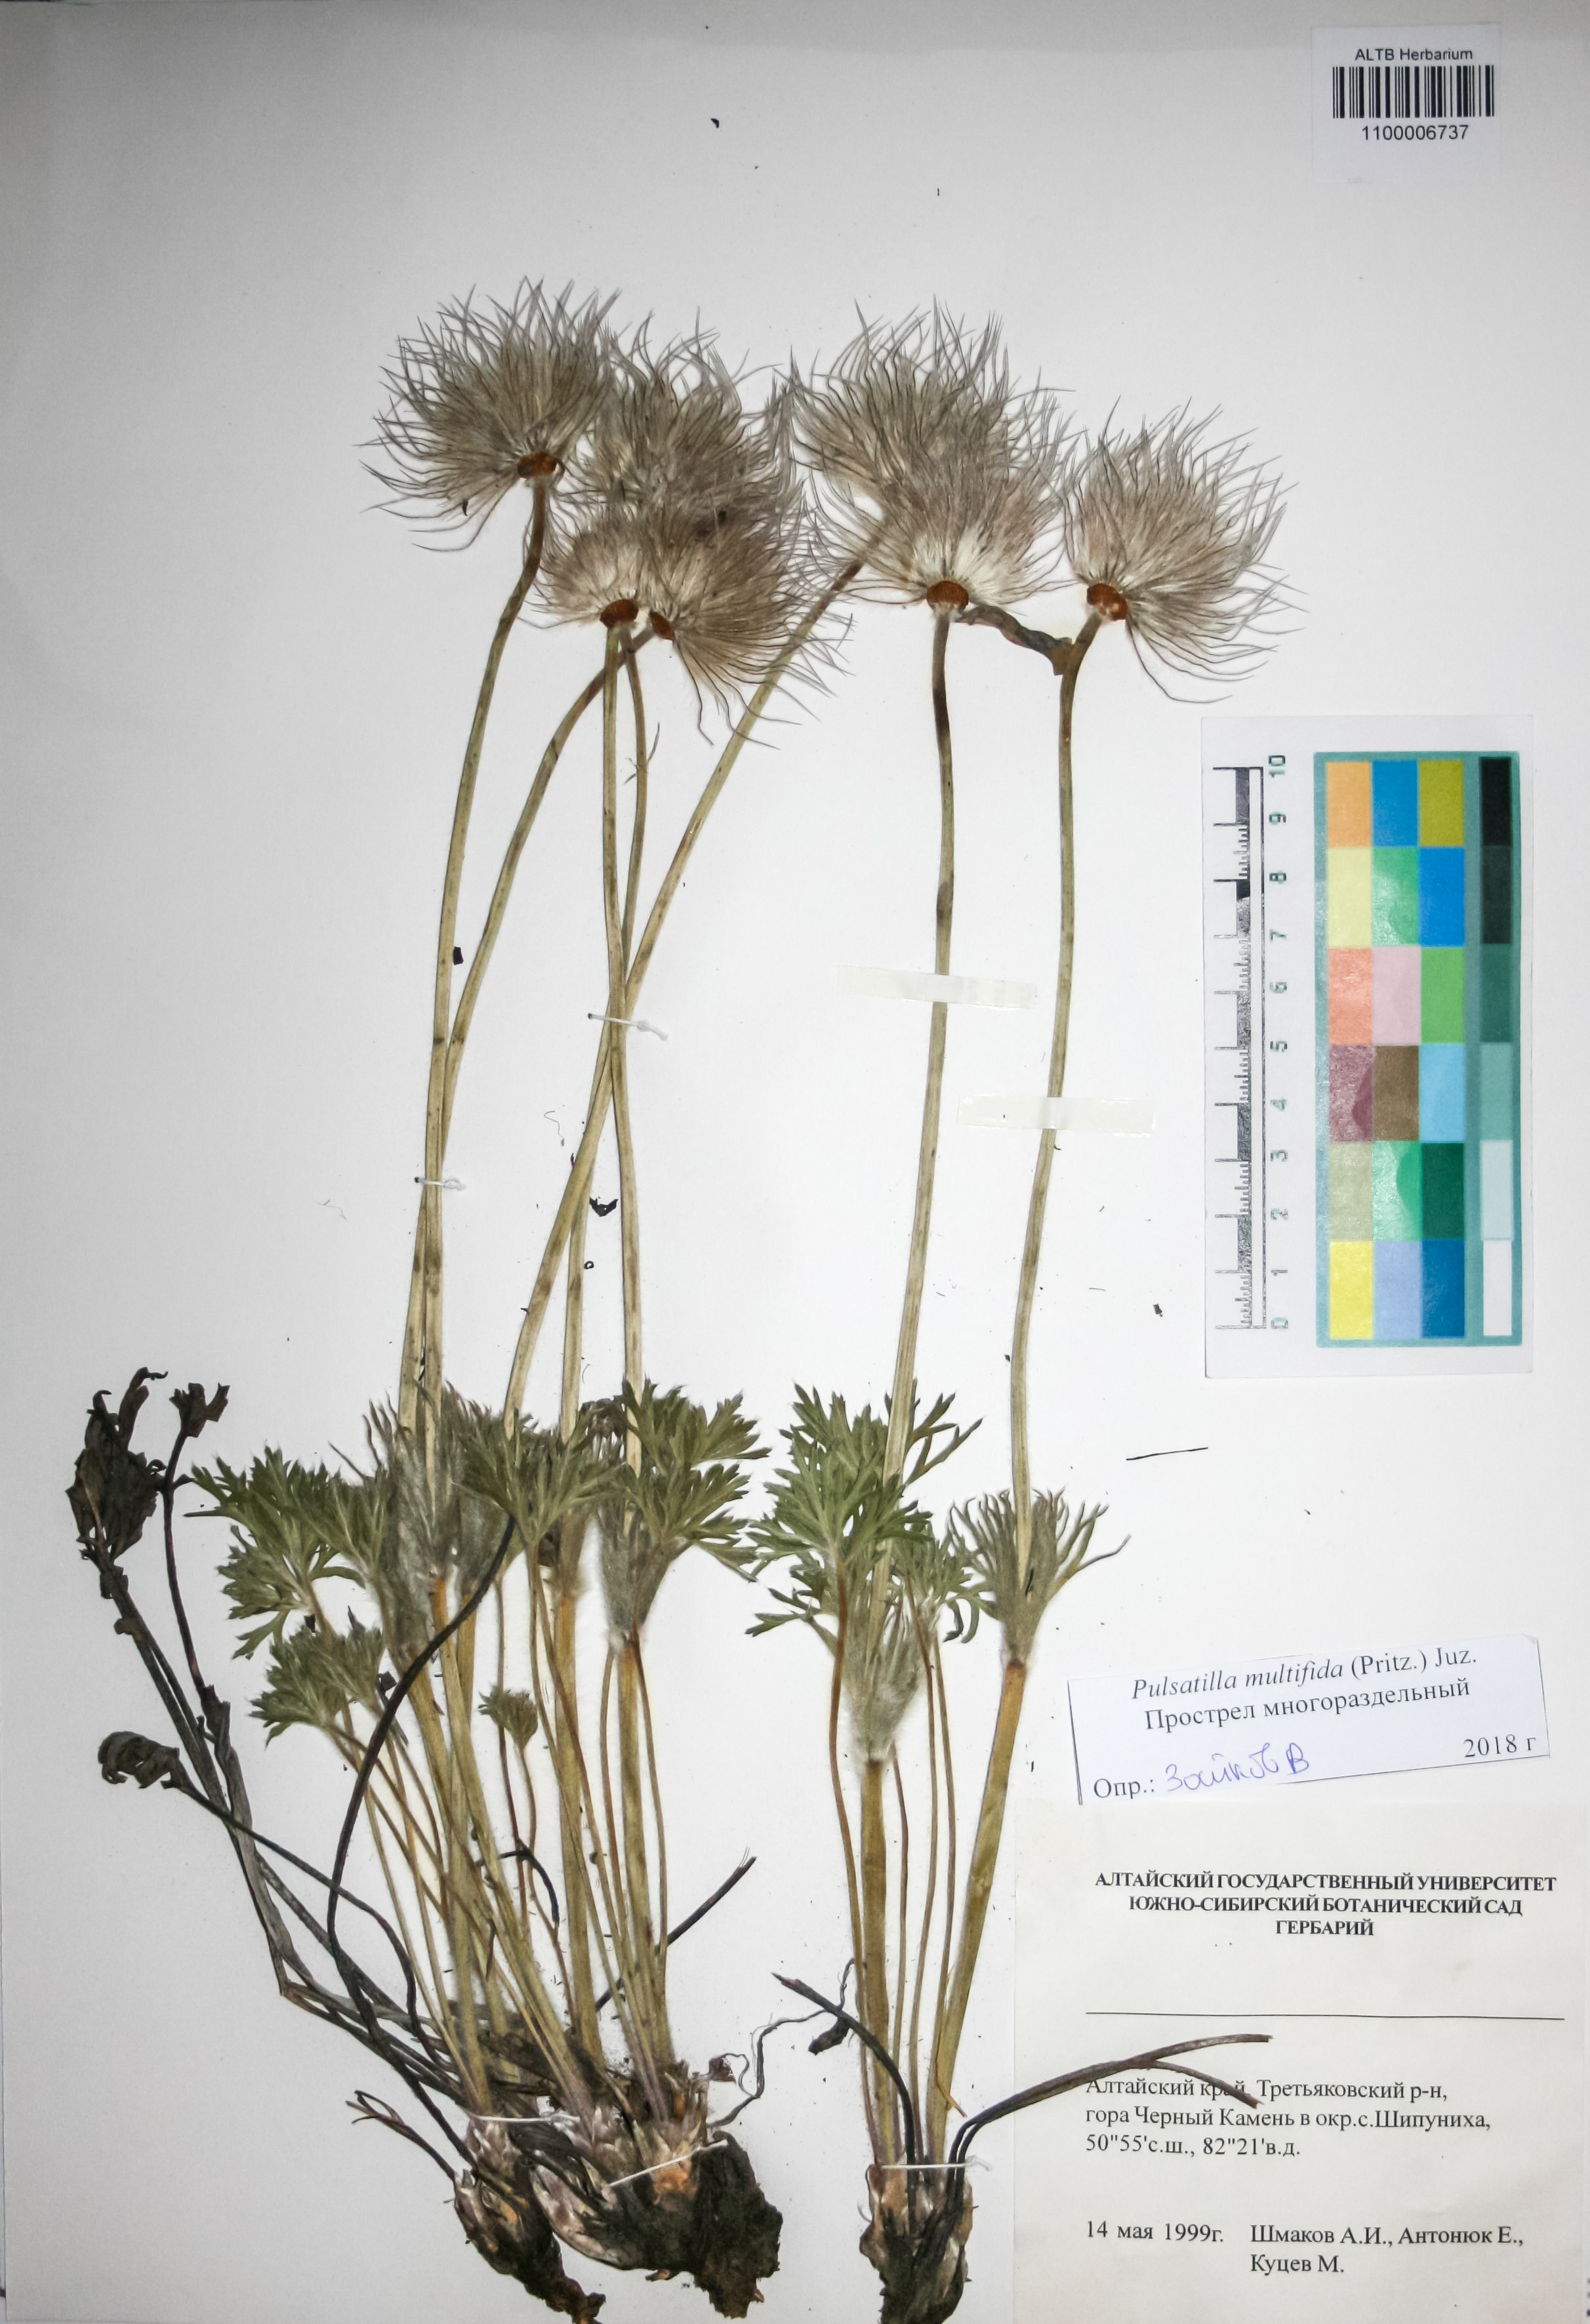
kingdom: Plantae
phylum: Tracheophyta
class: Magnoliopsida
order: Ranunculales
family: Ranunculaceae
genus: Pulsatilla
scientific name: Pulsatilla patens
